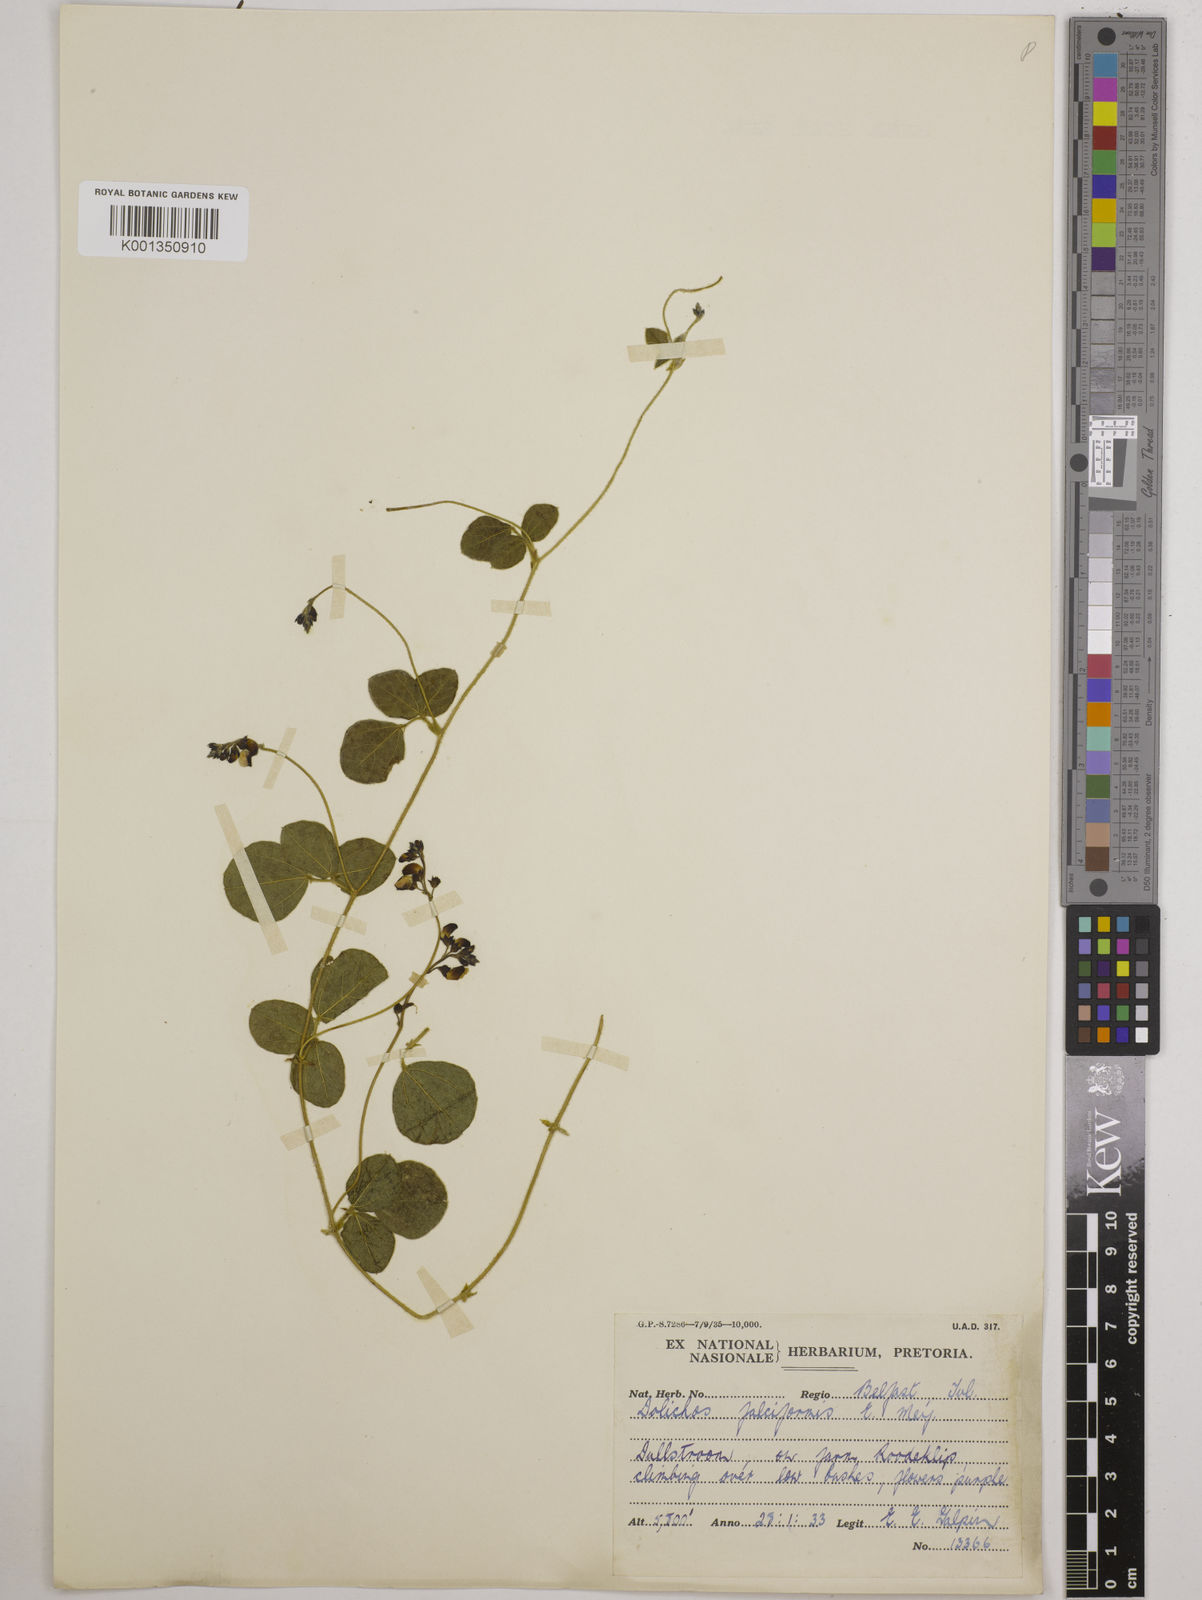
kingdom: Plantae
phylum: Tracheophyta
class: Magnoliopsida
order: Fabales
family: Fabaceae
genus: Dolichos
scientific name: Dolichos falciformis
